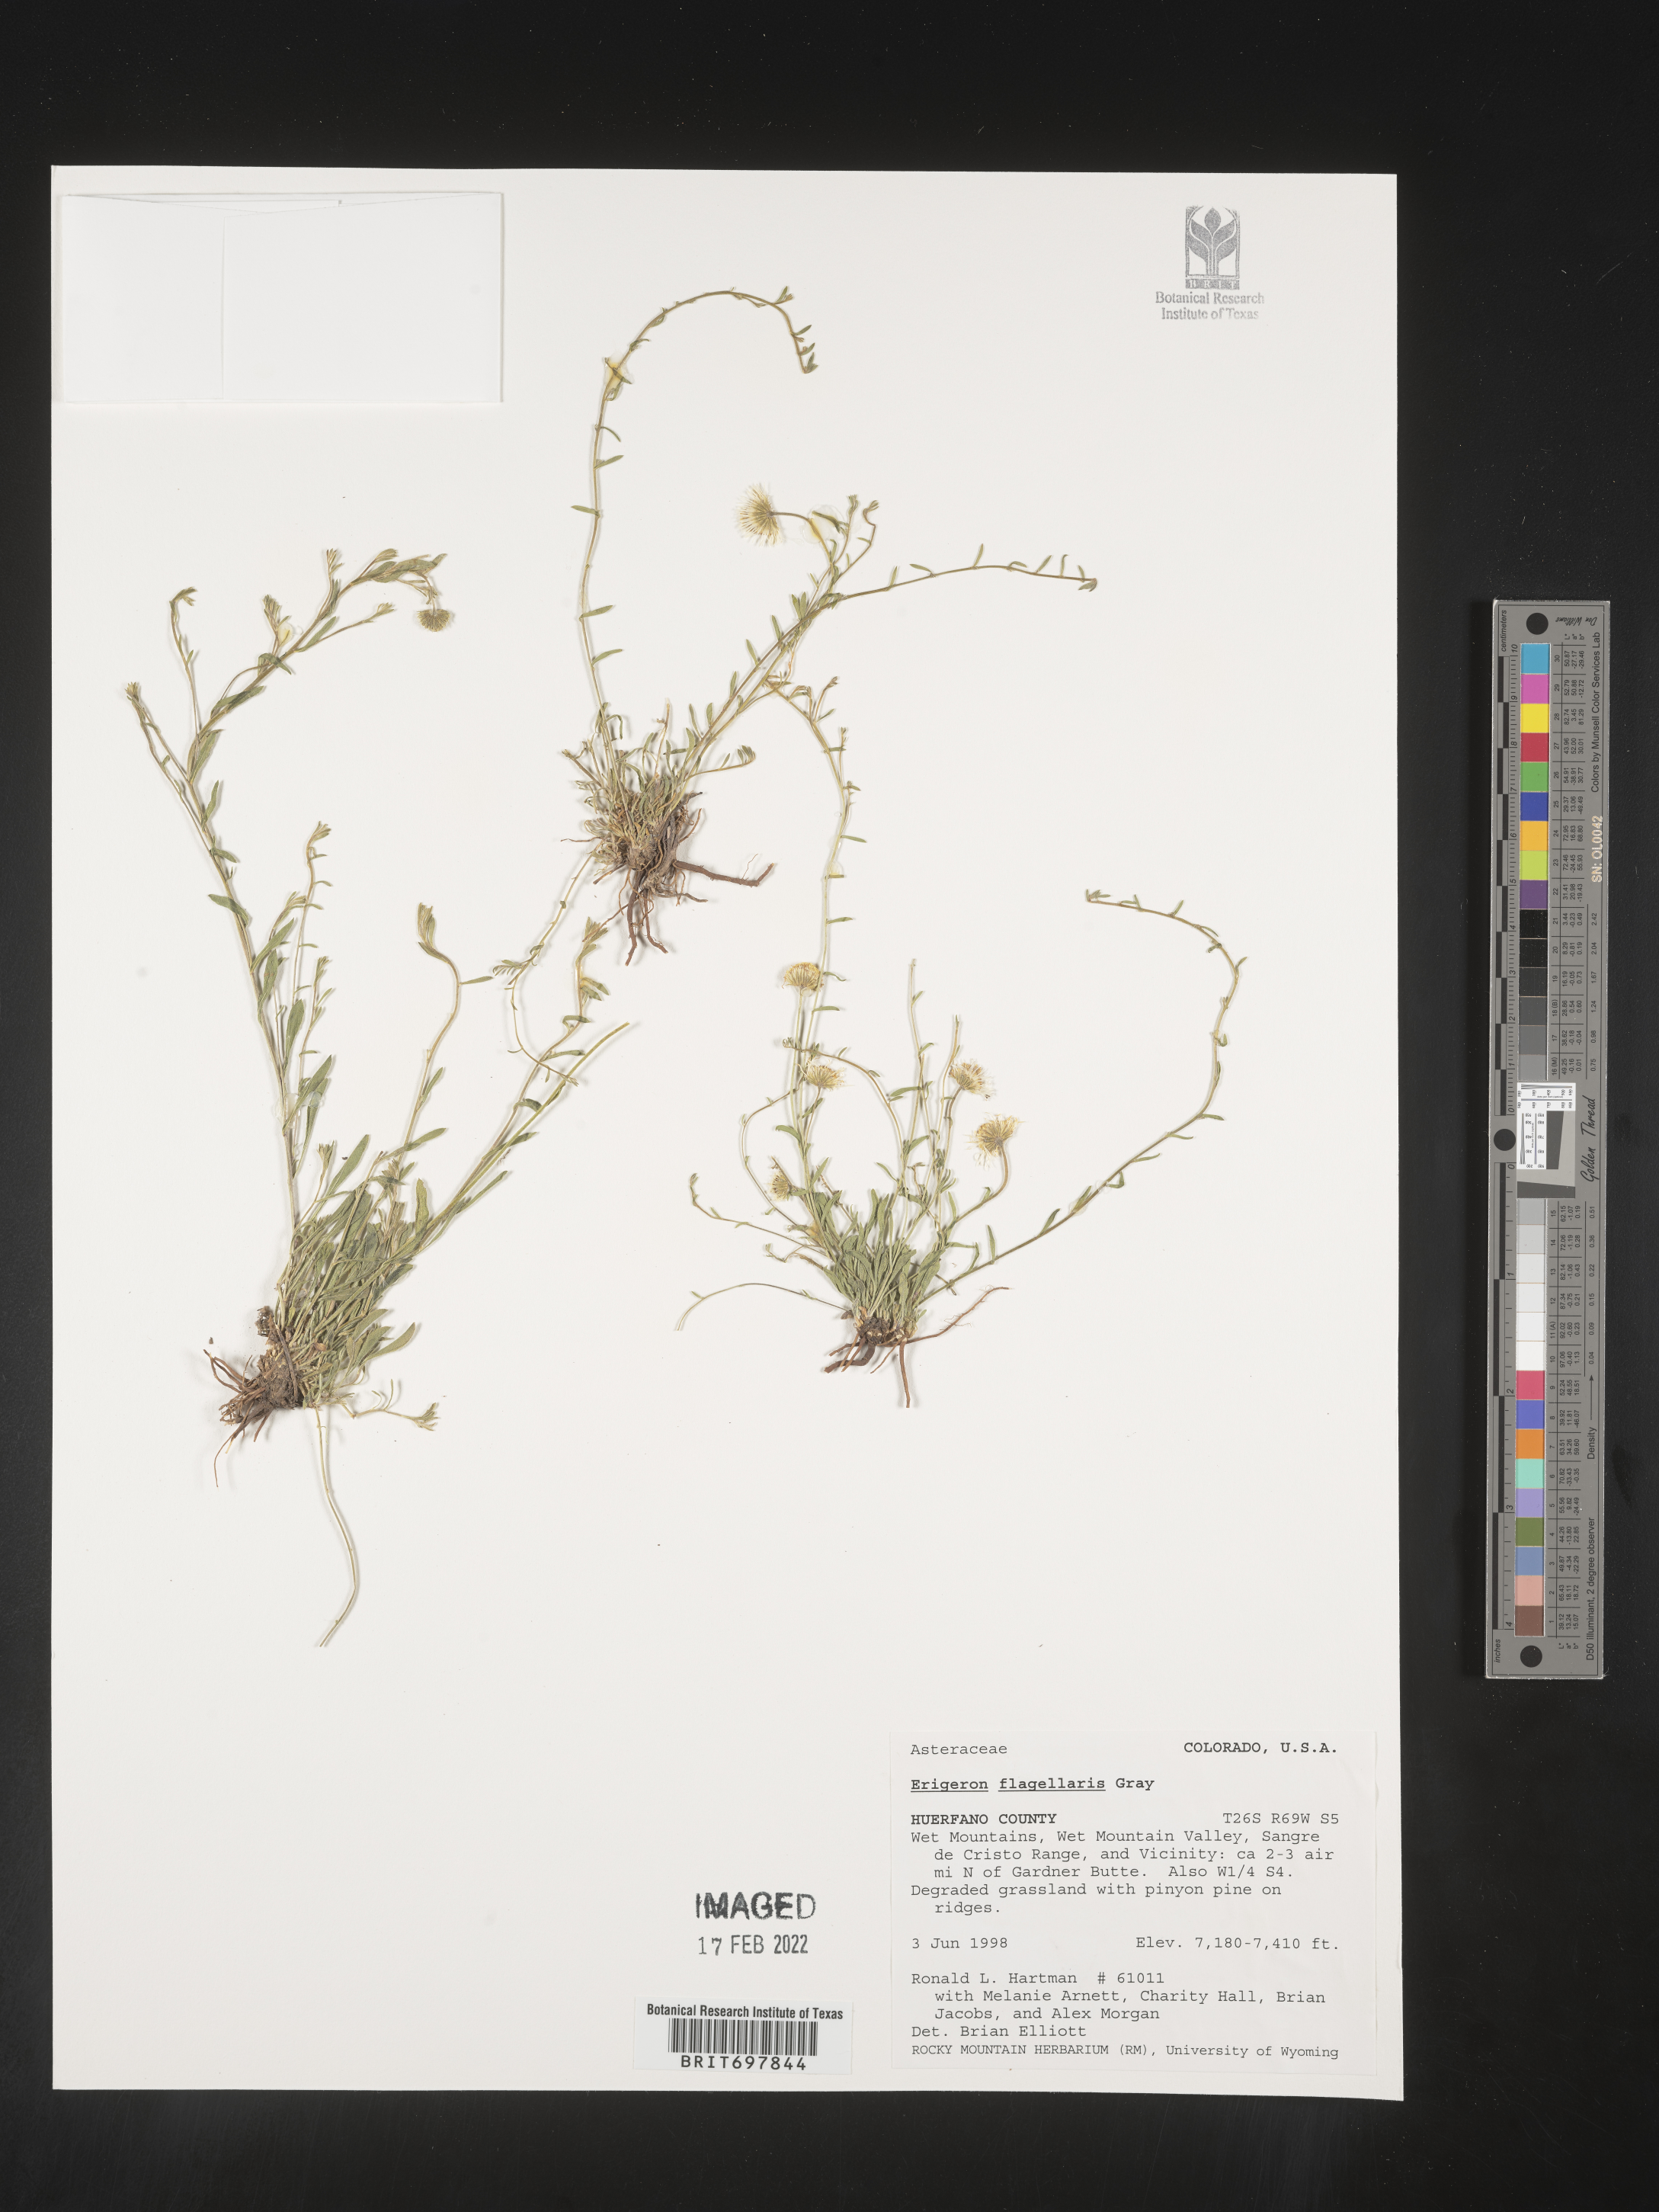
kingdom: Plantae
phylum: Tracheophyta
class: Magnoliopsida
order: Asterales
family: Asteraceae
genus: Erigeron
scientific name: Erigeron flagellaris
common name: Running fleabane
